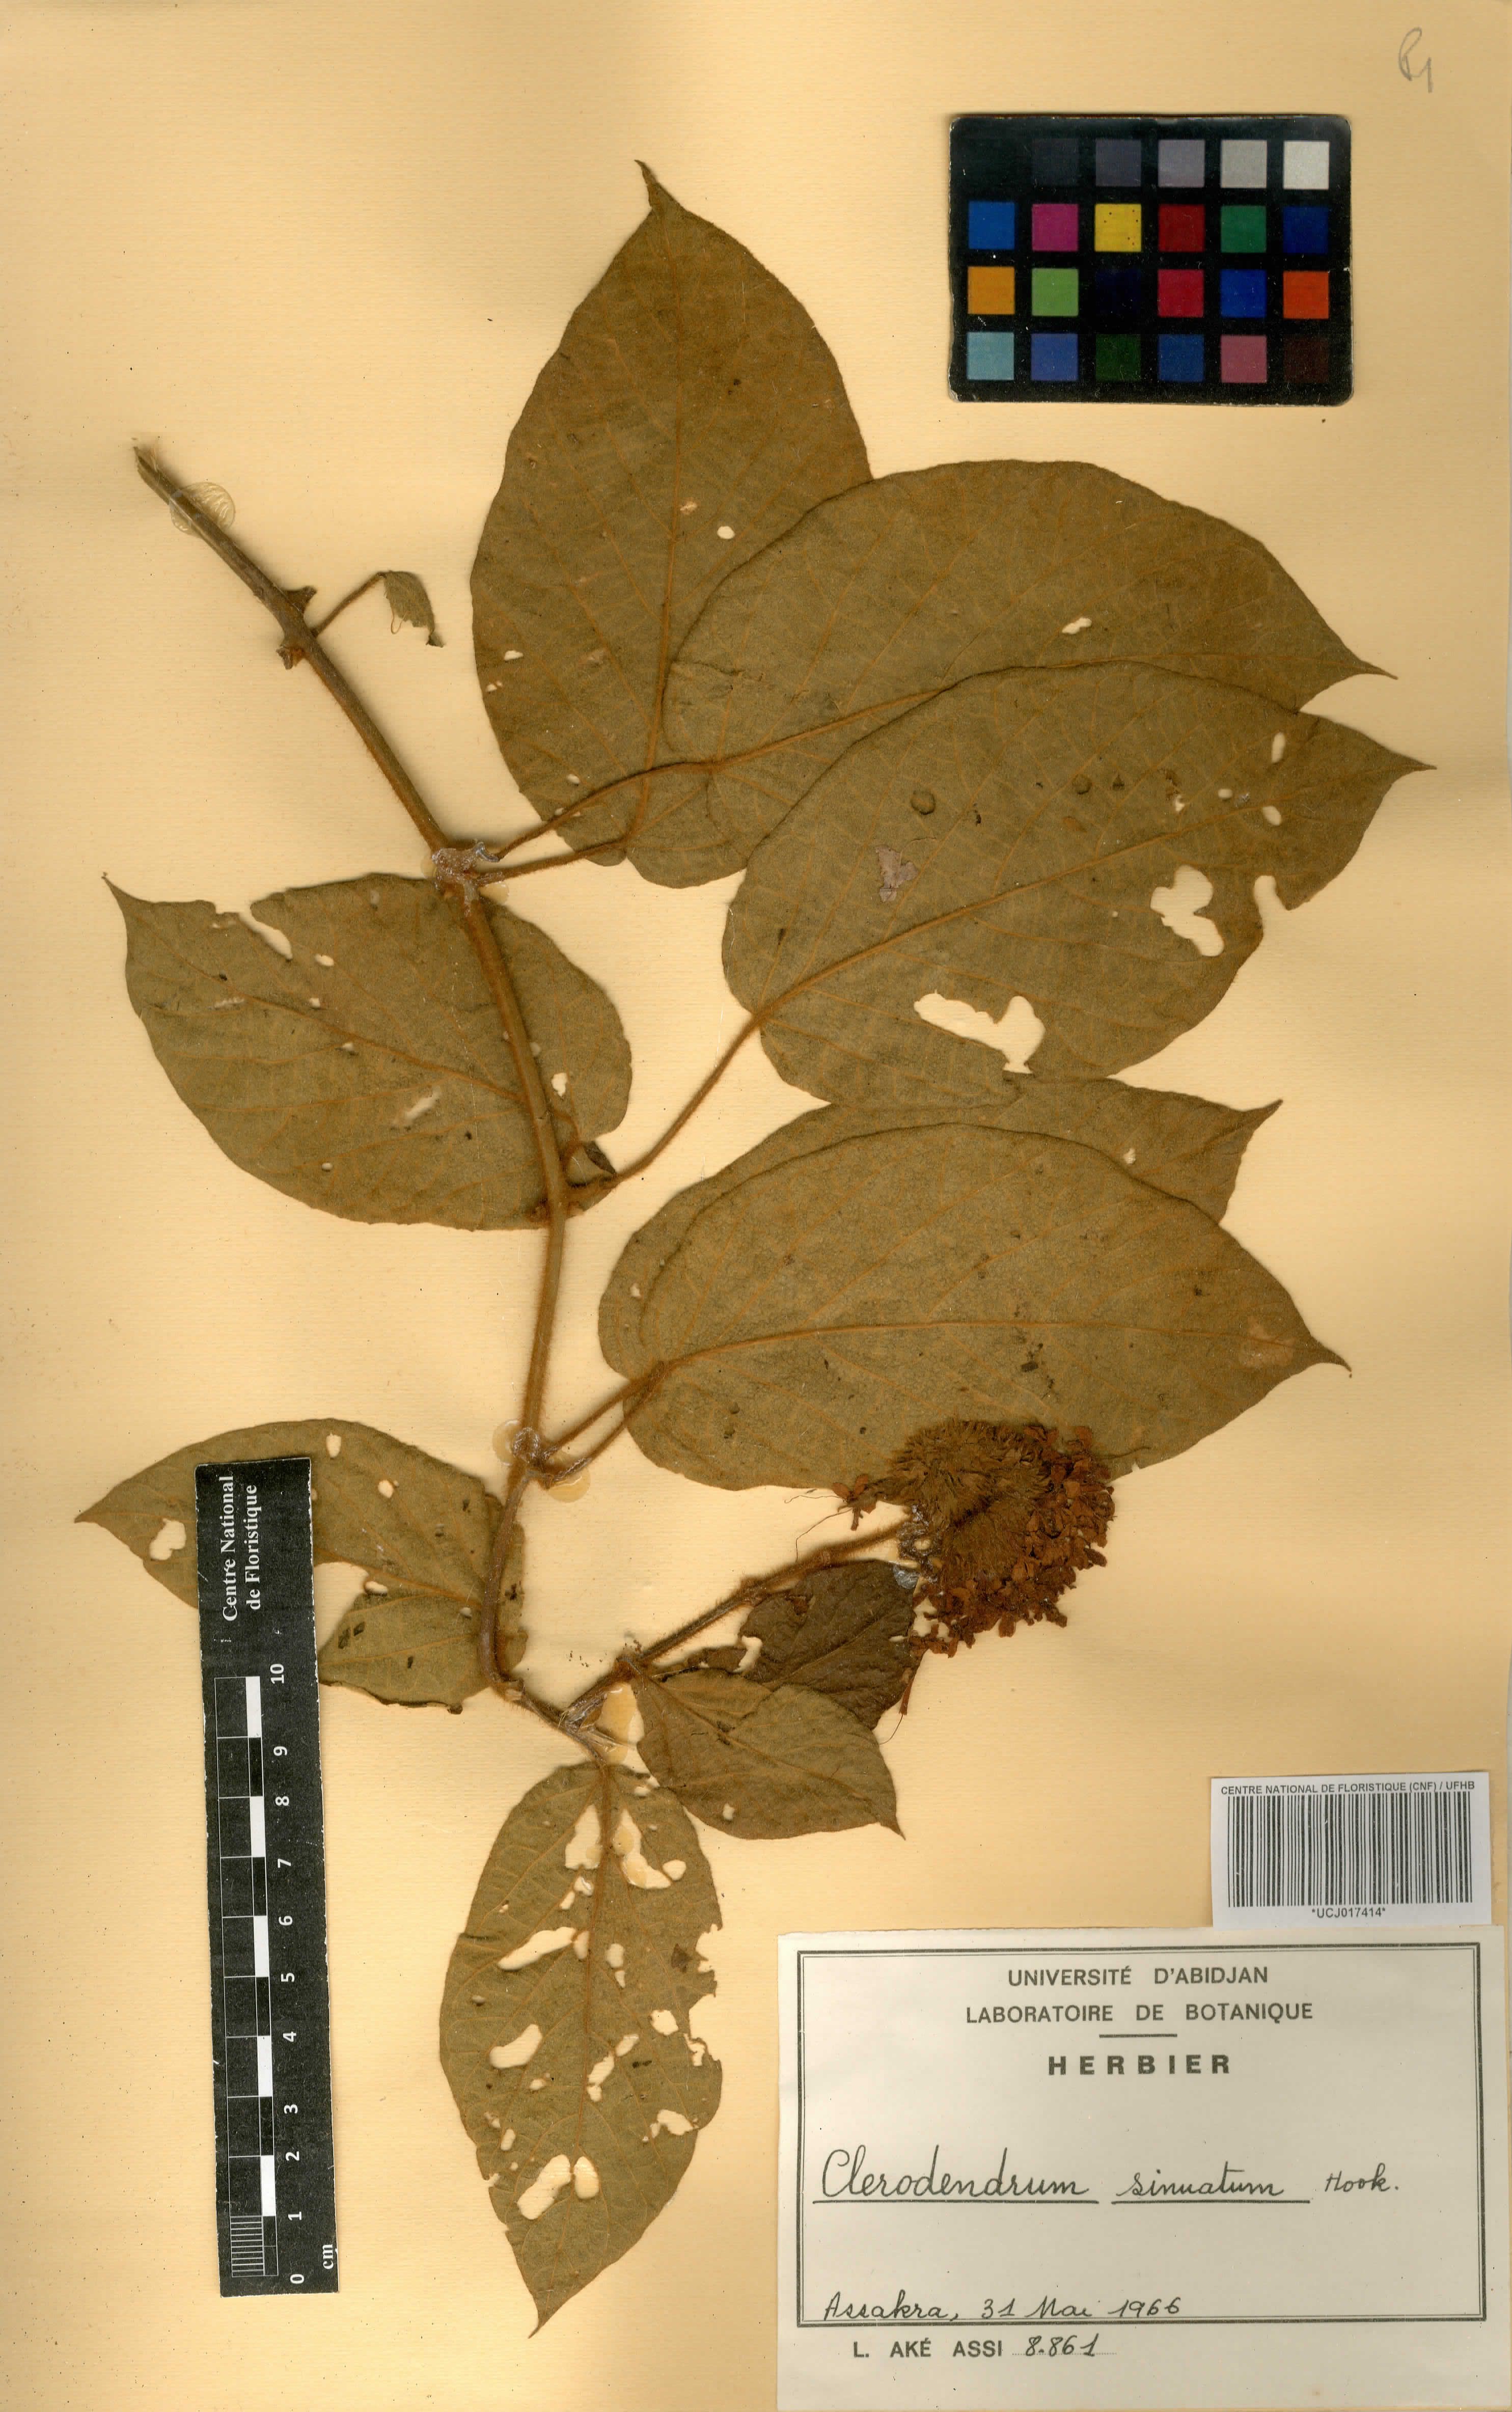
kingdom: Plantae
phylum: Tracheophyta
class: Magnoliopsida
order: Lamiales
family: Lamiaceae
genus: Clerodendrum
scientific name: Clerodendrum sinuatum
